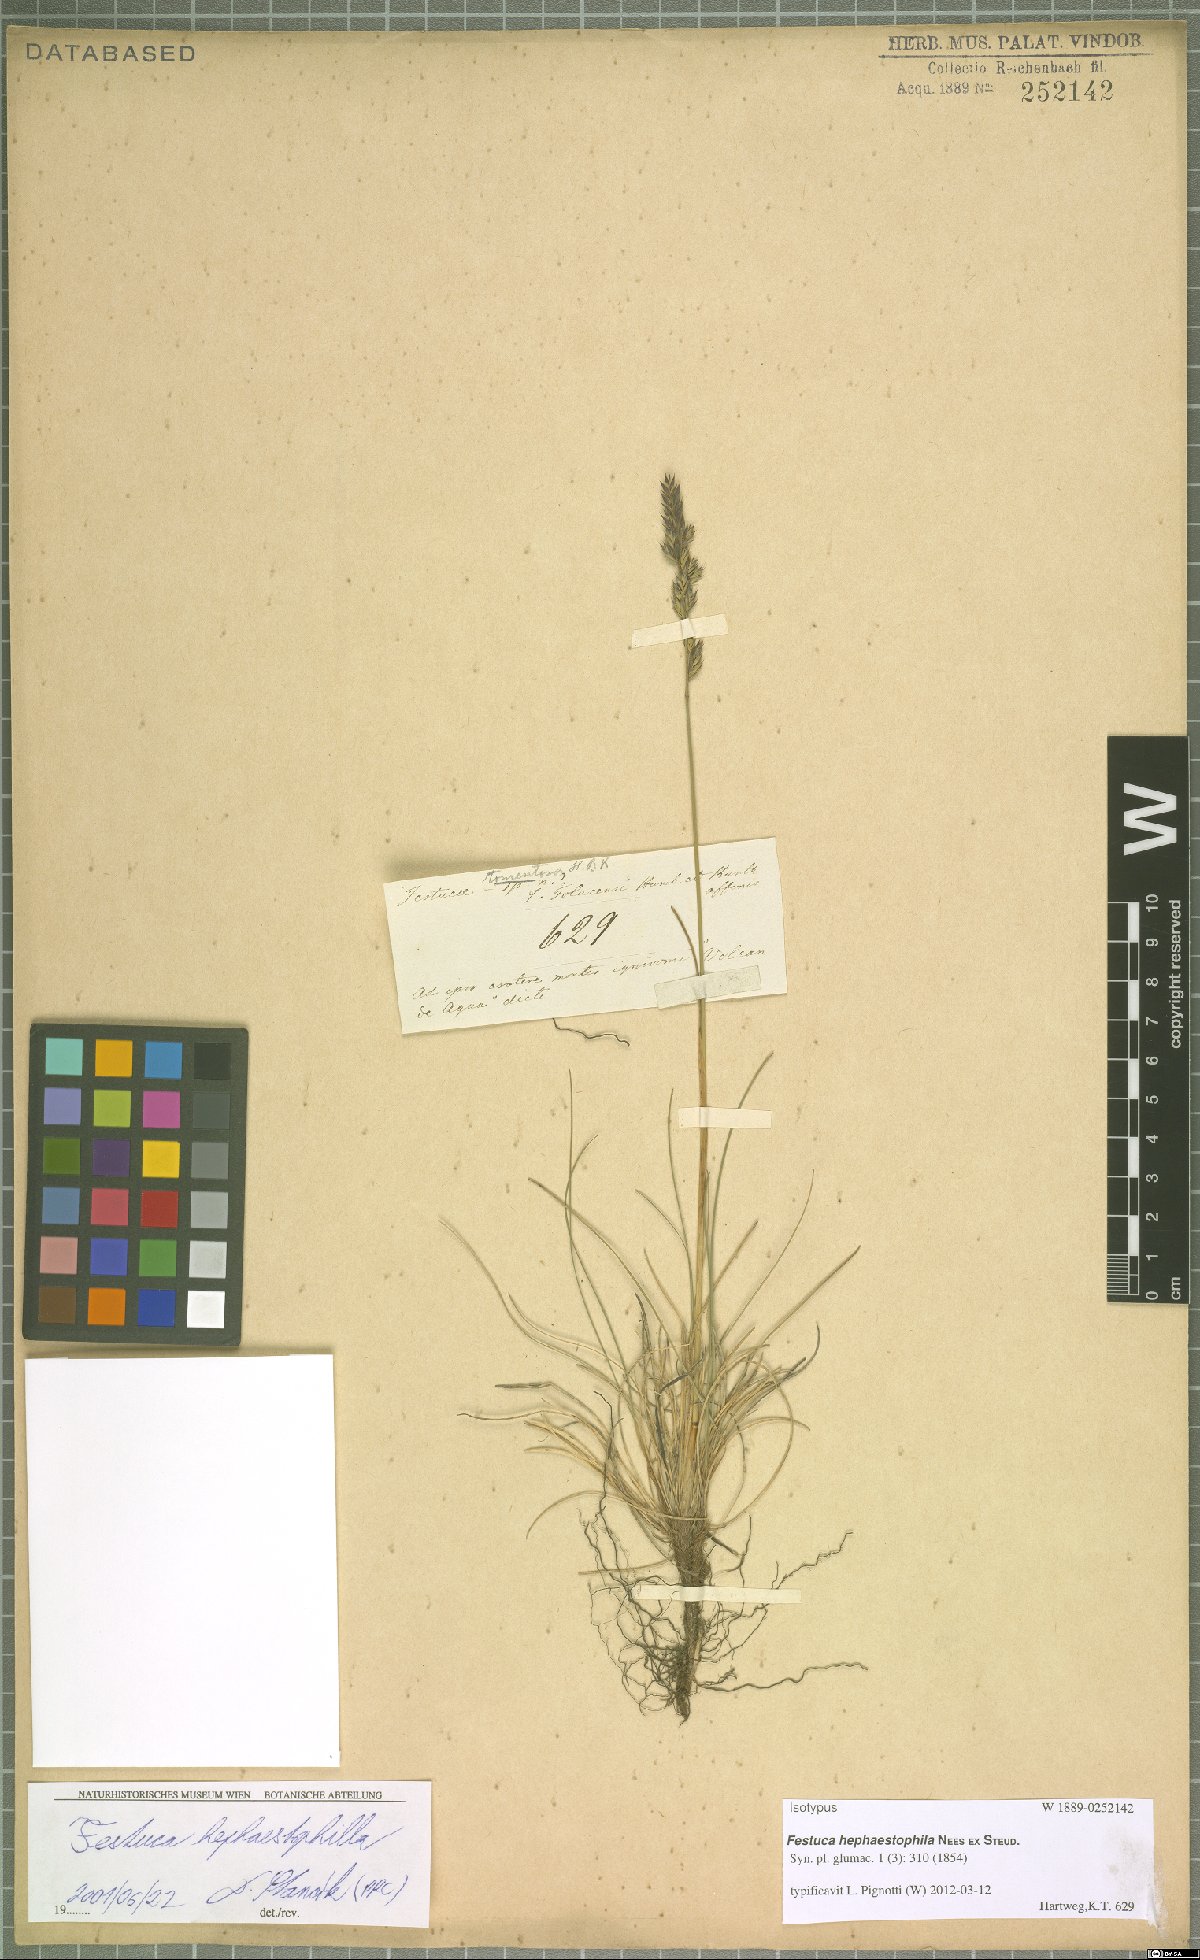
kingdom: Plantae
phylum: Tracheophyta
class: Liliopsida
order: Poales
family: Poaceae
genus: Festuca
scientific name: Festuca hephaestophila
